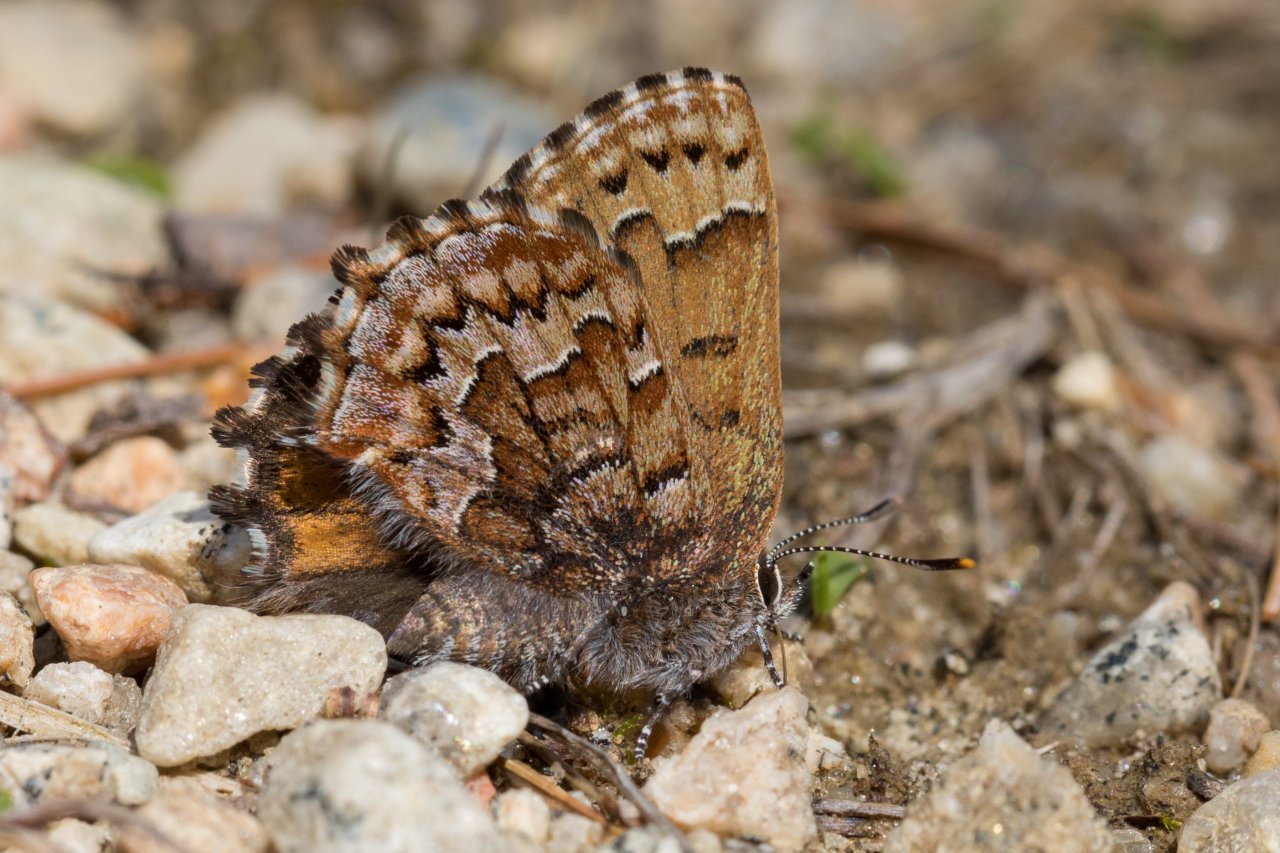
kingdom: Animalia
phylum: Arthropoda
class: Insecta
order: Lepidoptera
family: Lycaenidae
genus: Incisalia
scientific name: Incisalia niphon
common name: Eastern Pine Elfin
